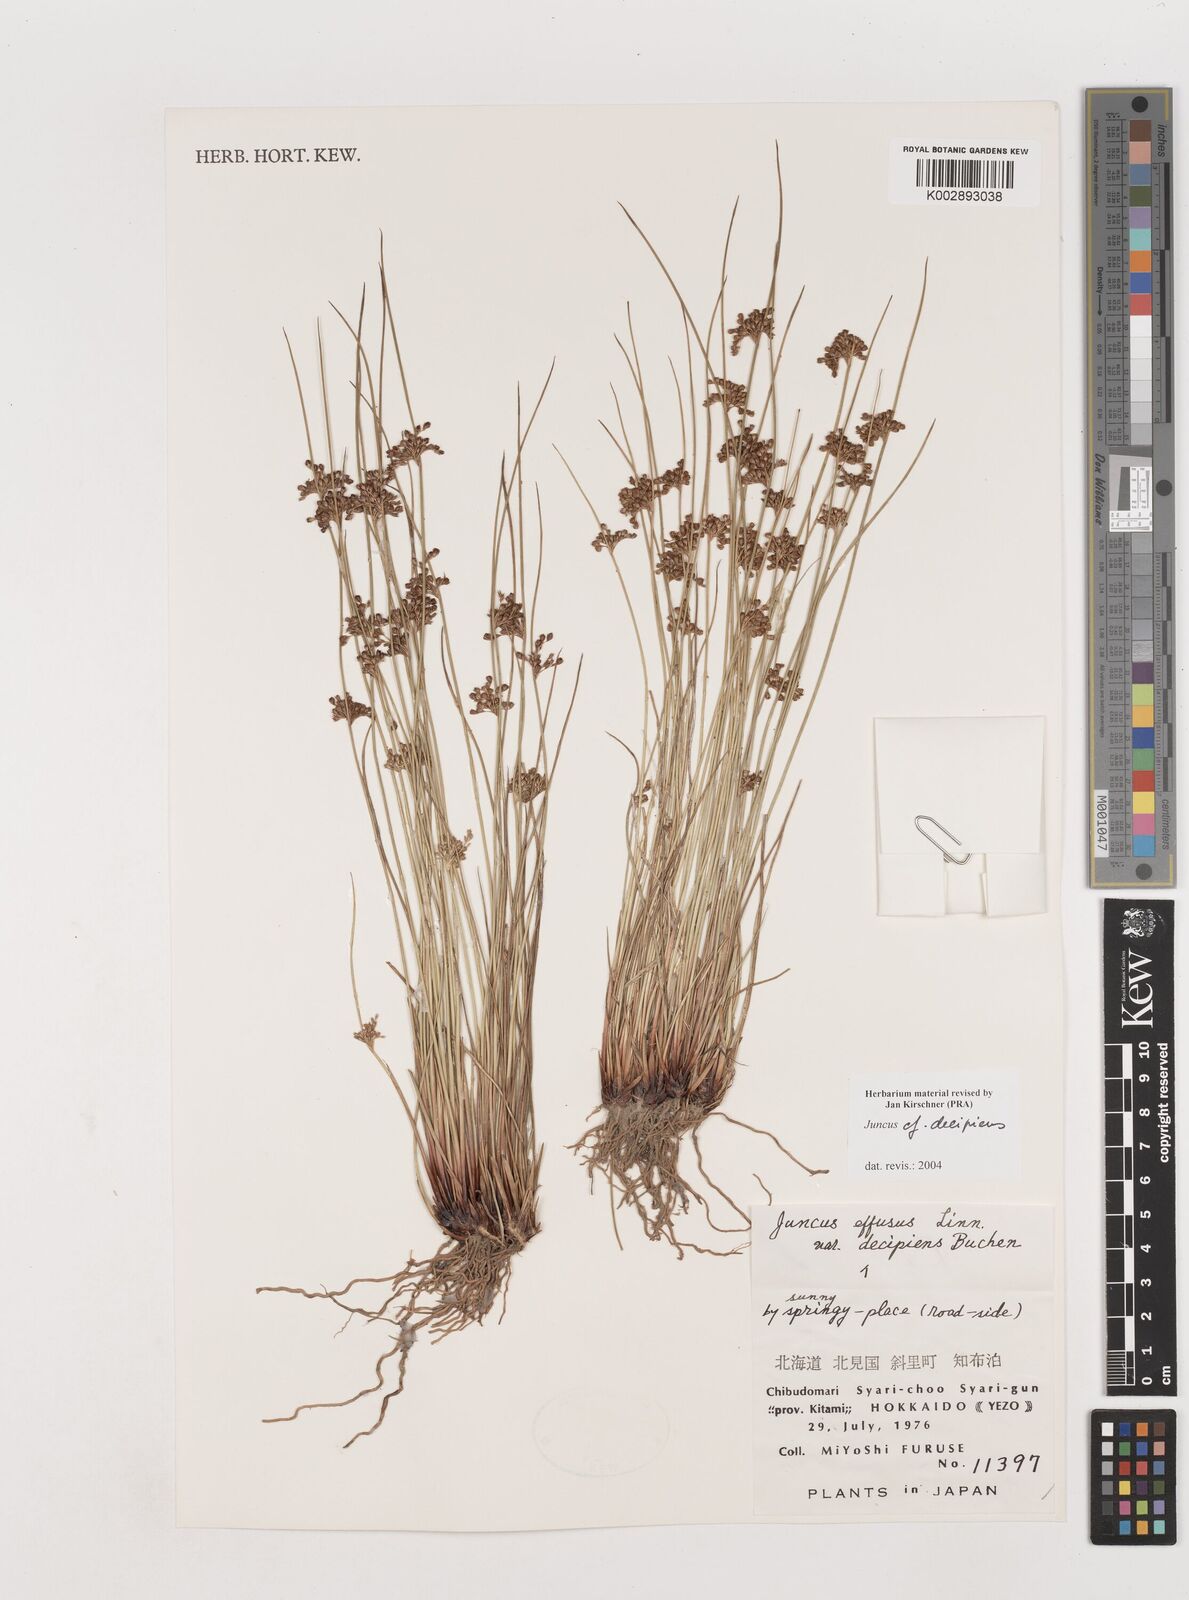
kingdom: Plantae
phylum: Tracheophyta
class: Liliopsida
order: Poales
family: Juncaceae
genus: Juncus
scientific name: Juncus decipiens
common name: Lamp rush
